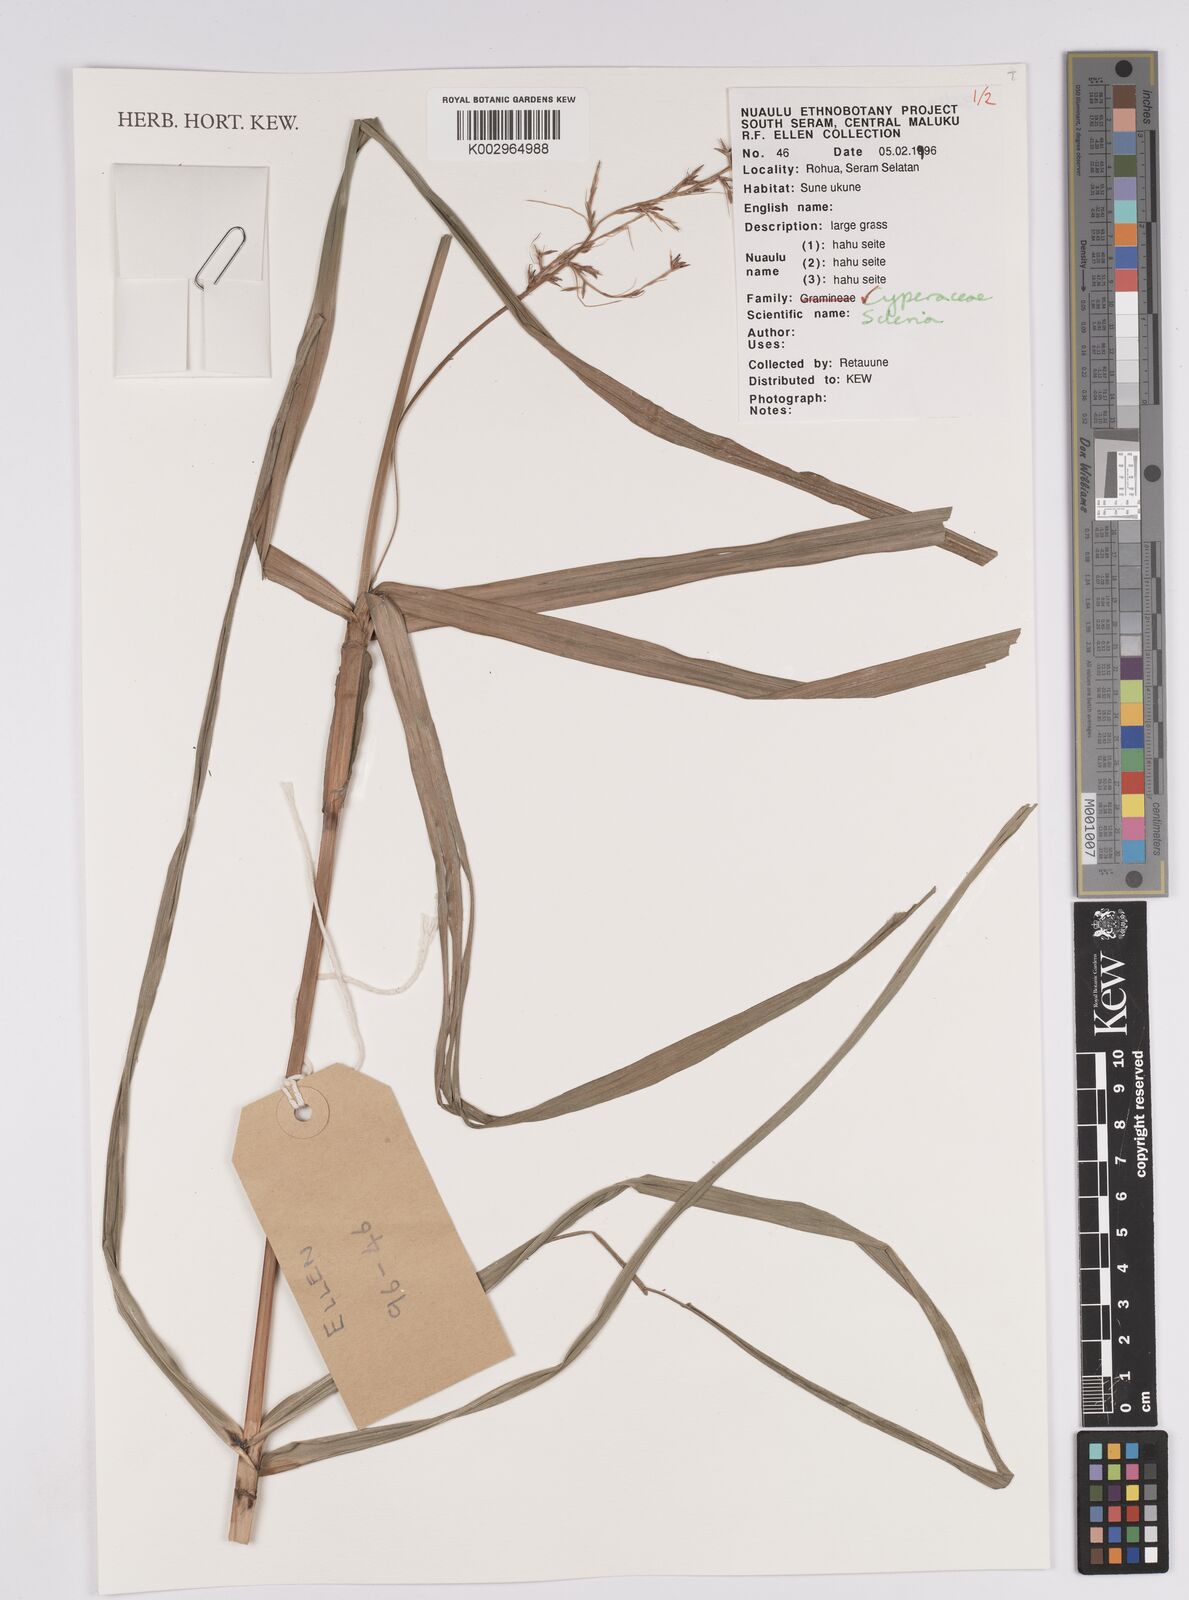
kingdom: Plantae
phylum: Tracheophyta
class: Liliopsida
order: Poales
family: Cyperaceae
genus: Scleria
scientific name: Scleria
